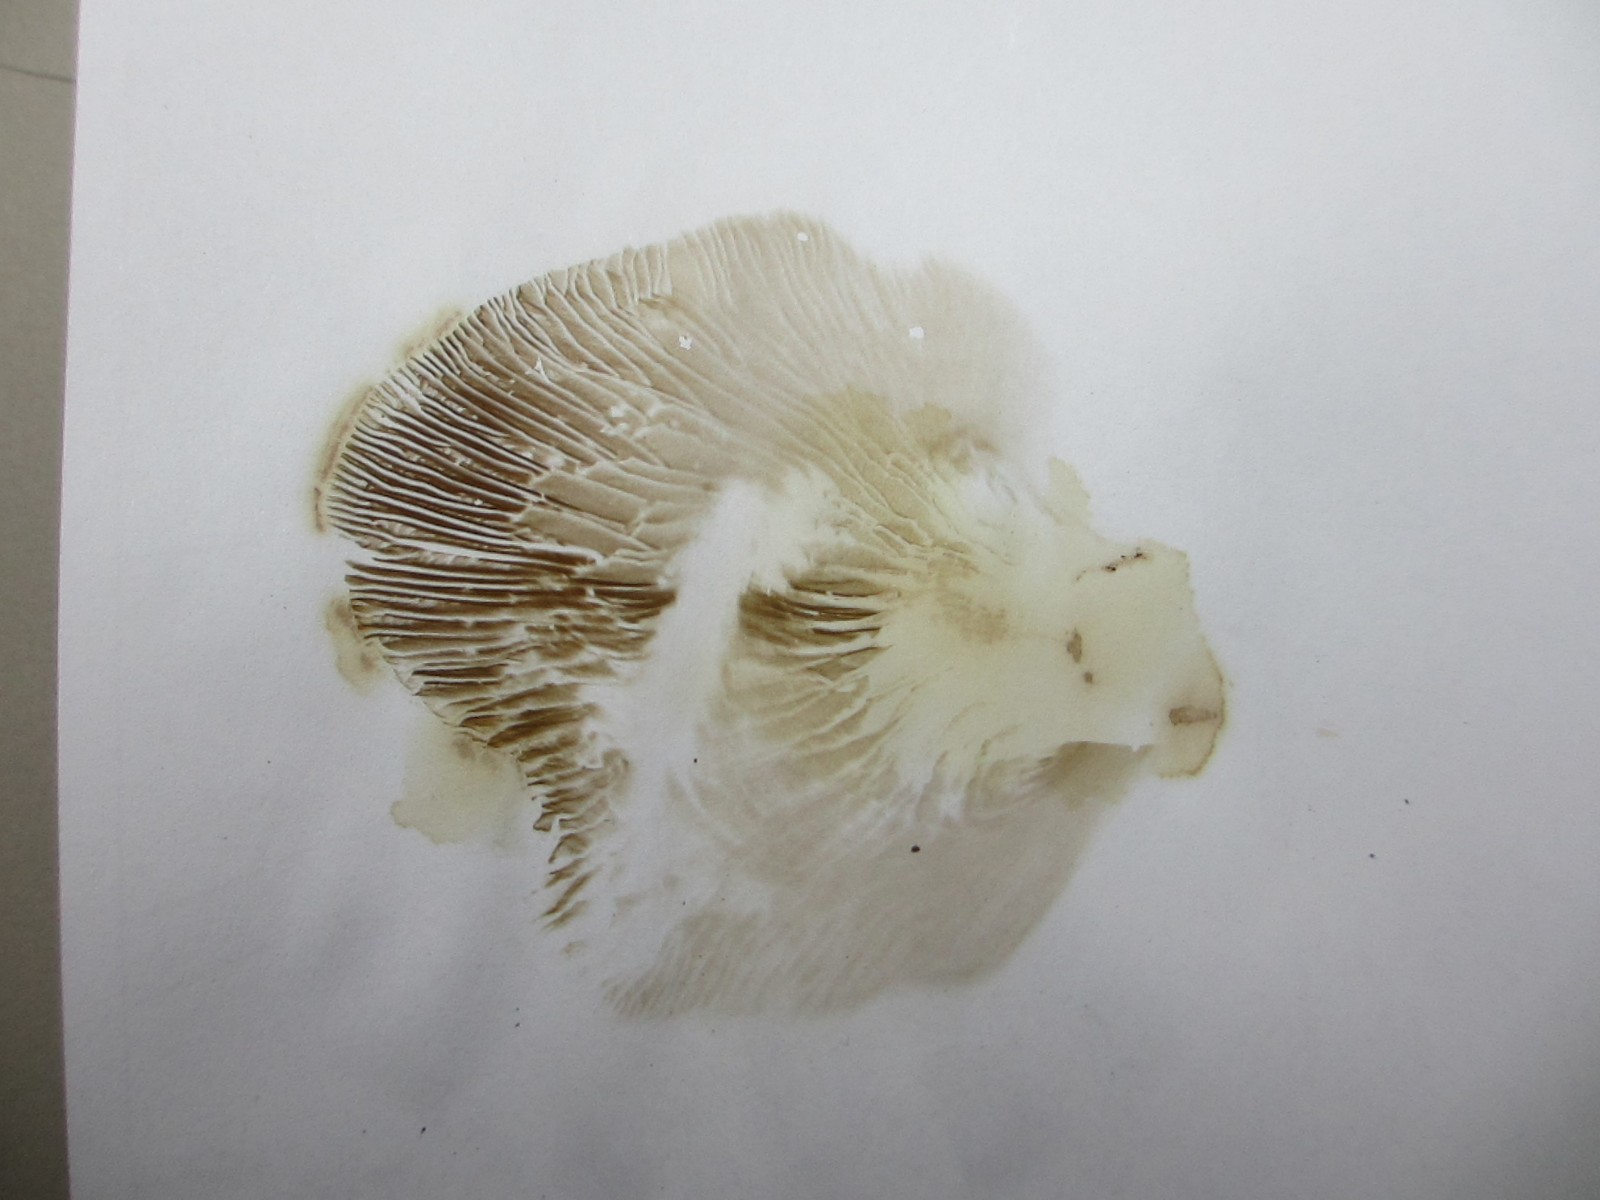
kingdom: Fungi
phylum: Basidiomycota
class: Agaricomycetes
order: Boletales
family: Paxillaceae
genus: Paxillus
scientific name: Paxillus rubicundulus
